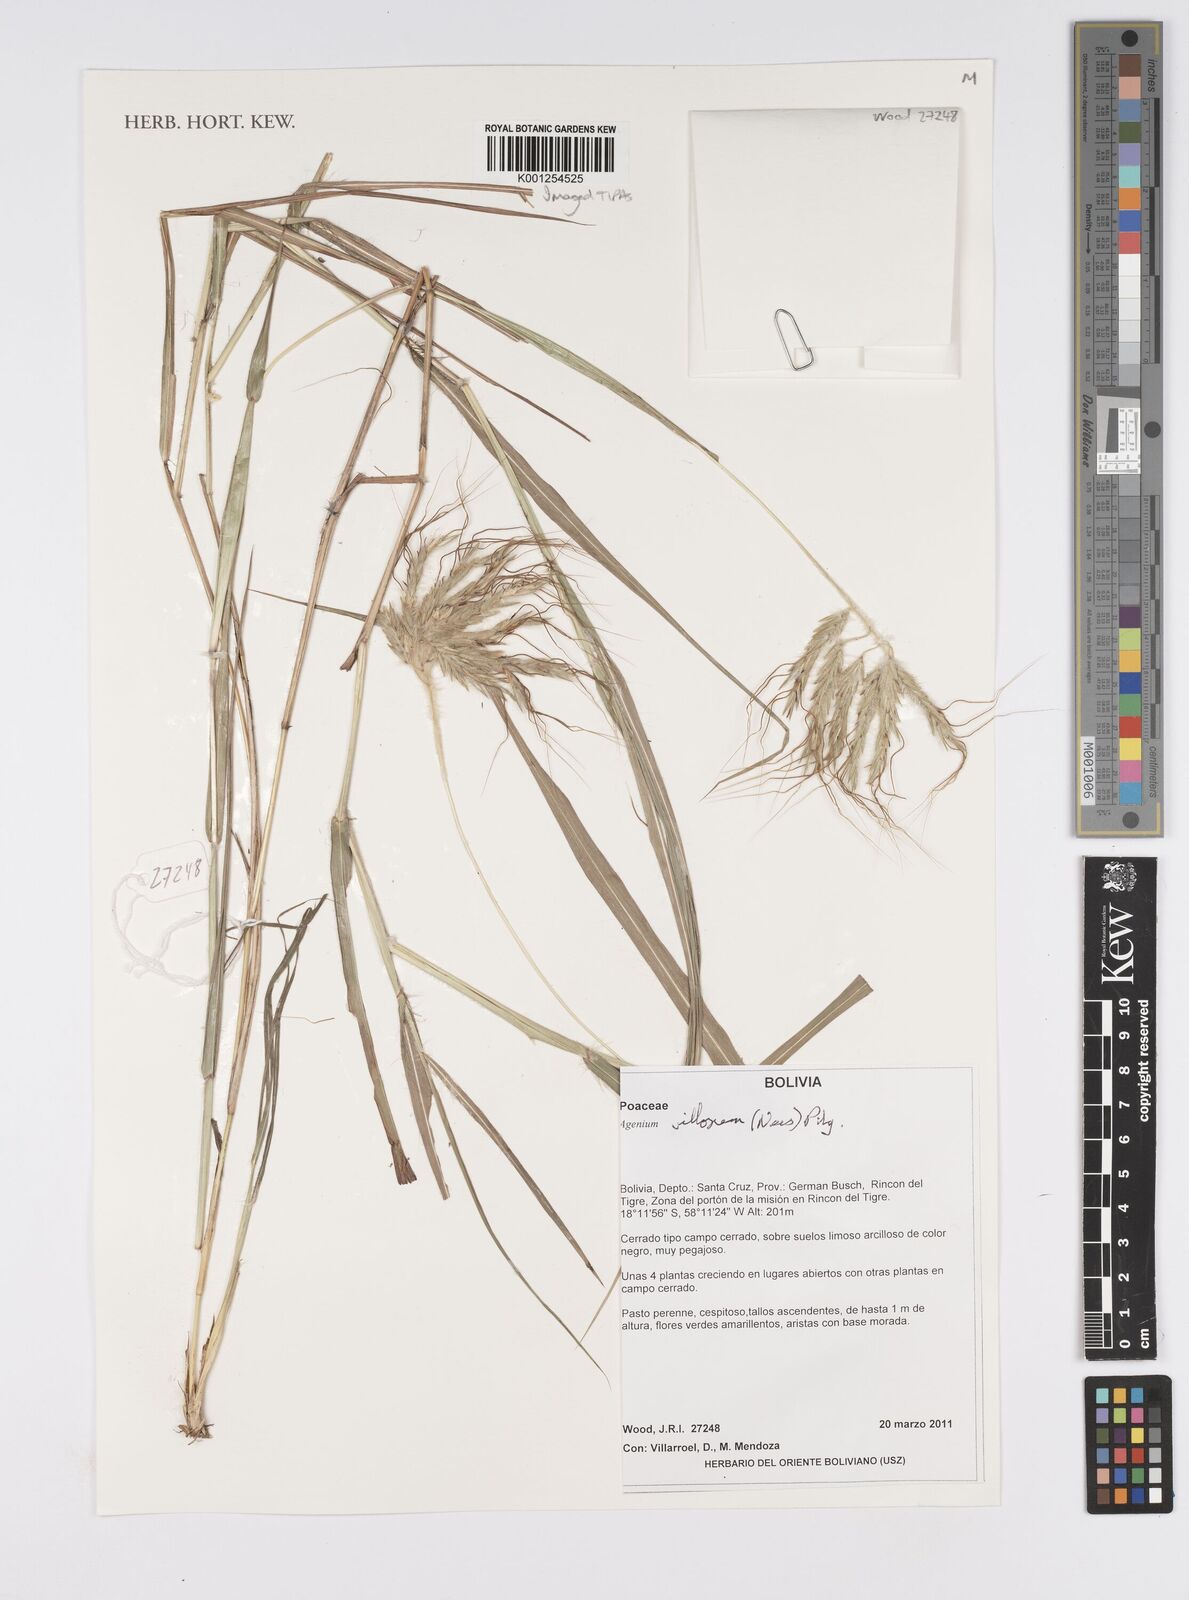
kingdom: Plantae
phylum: Tracheophyta
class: Liliopsida
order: Poales
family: Poaceae
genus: Agenium
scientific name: Agenium villosum
